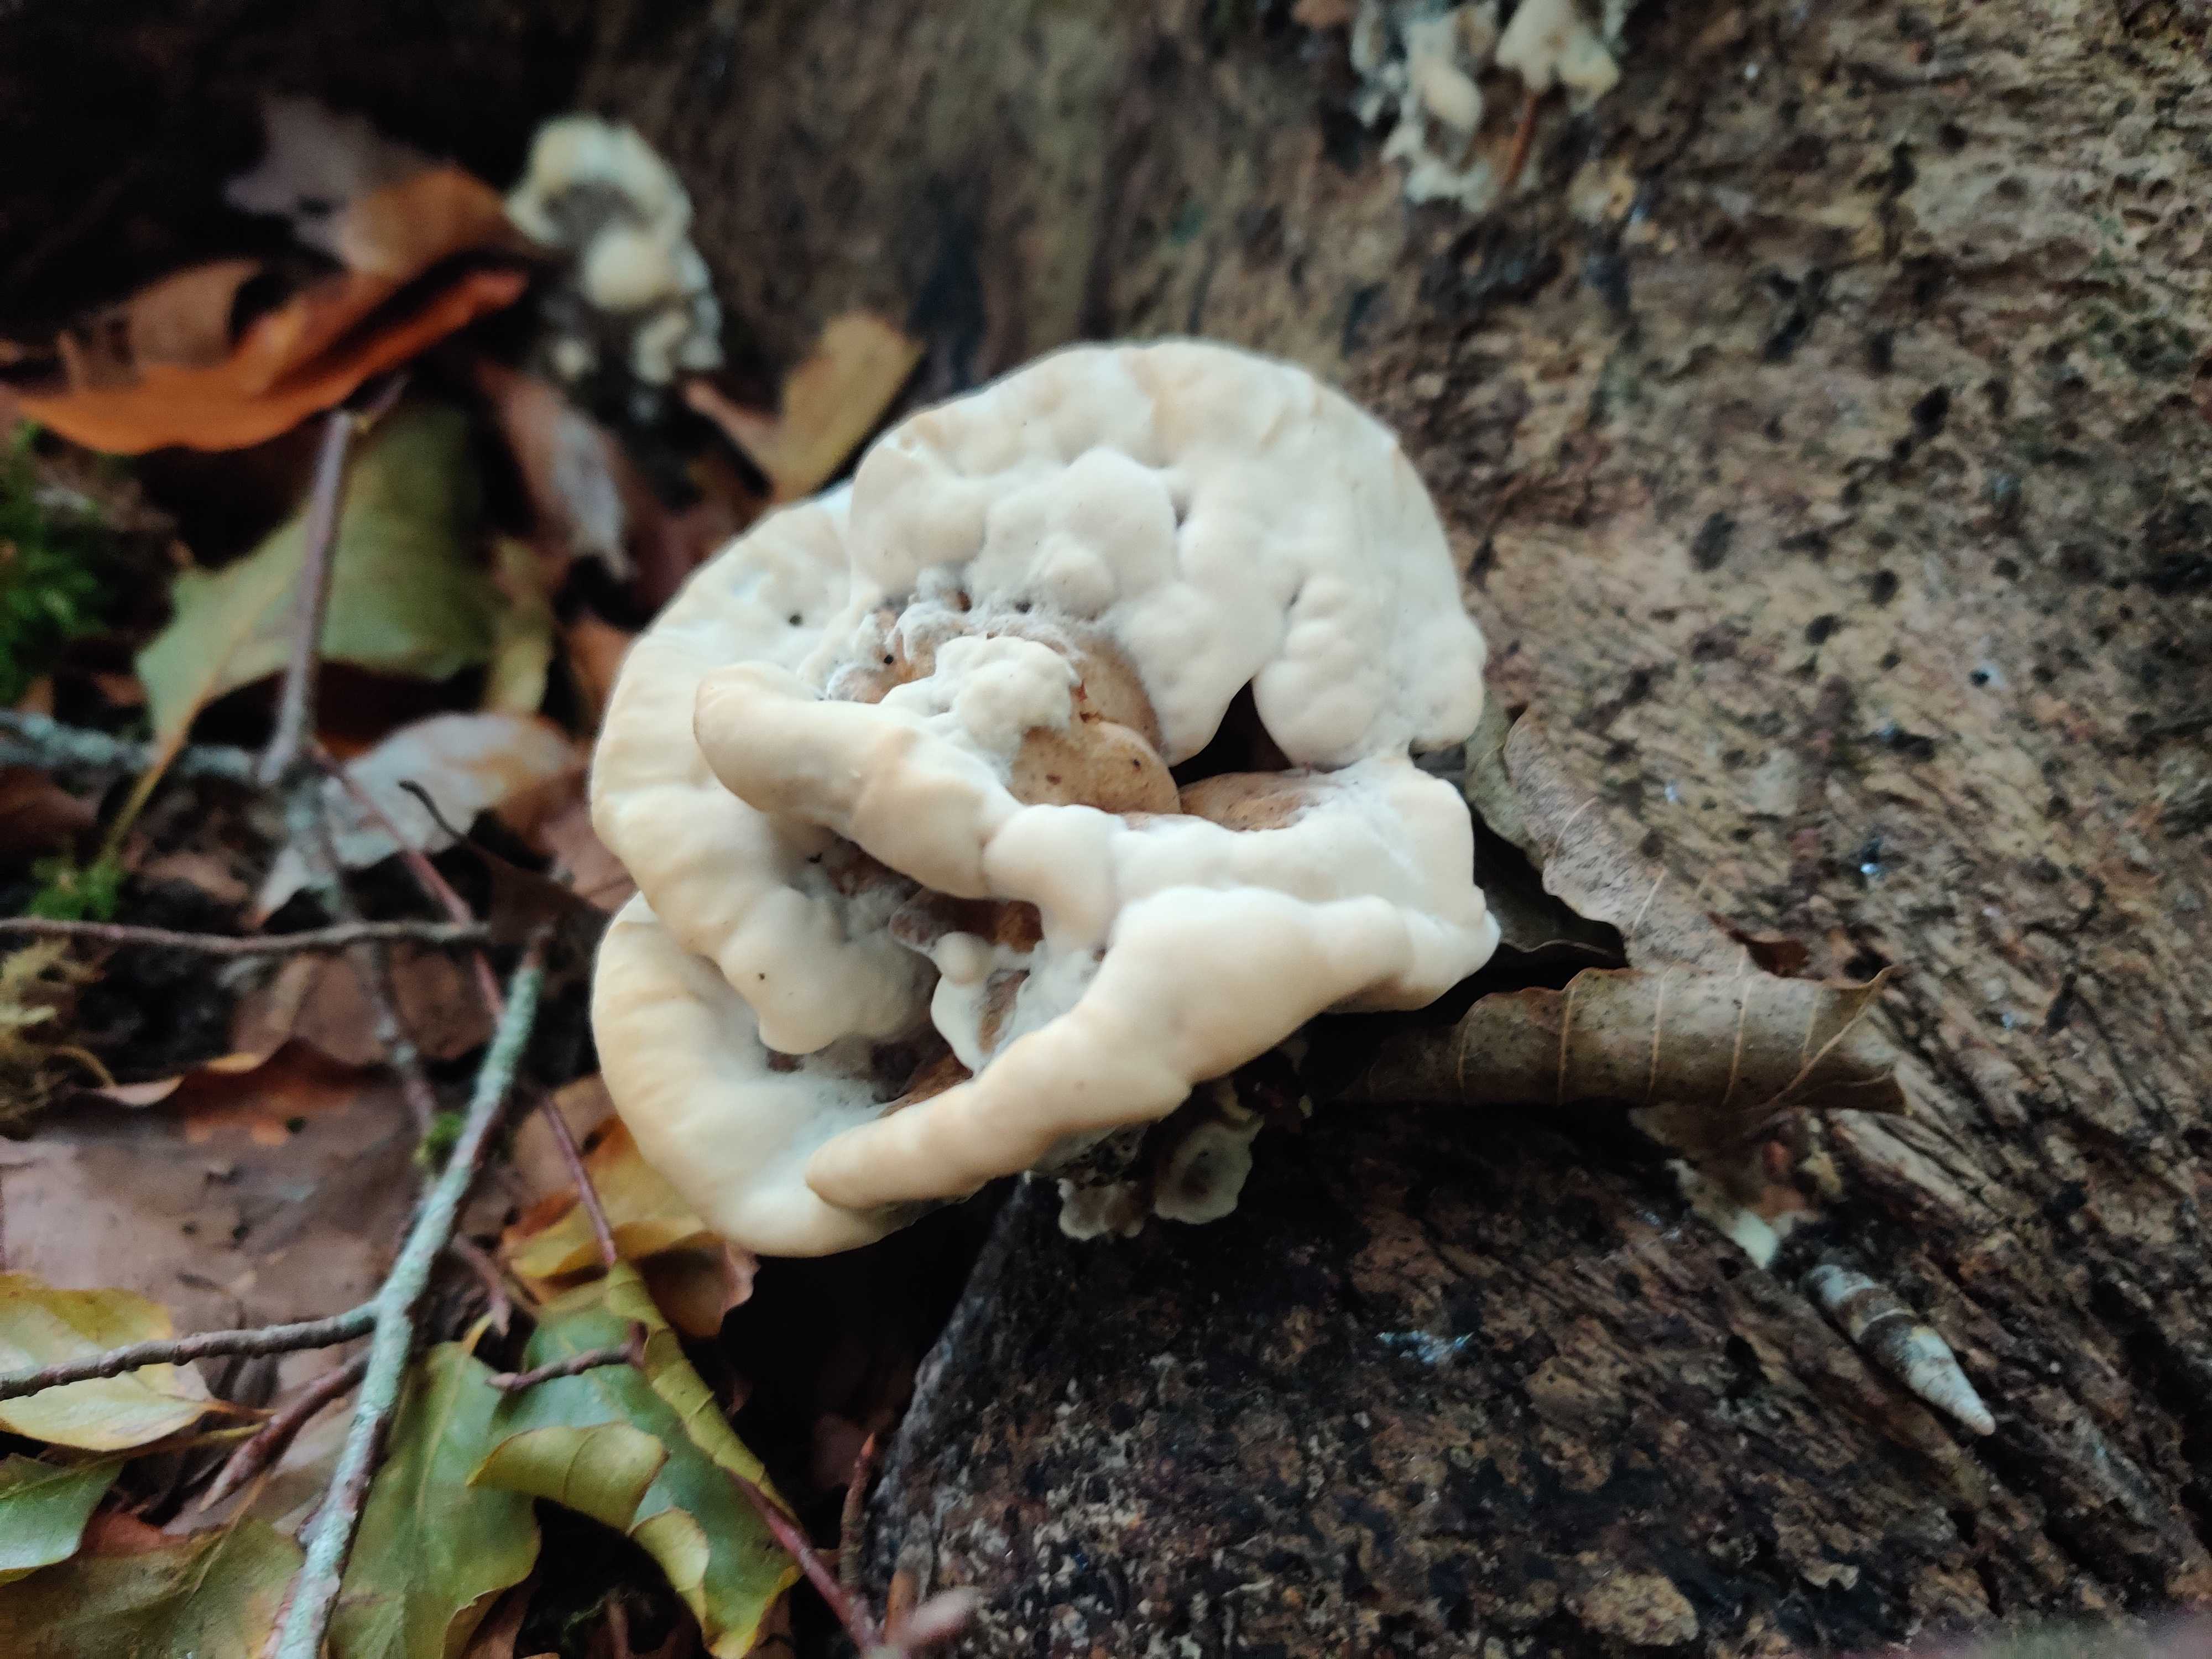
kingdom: Fungi
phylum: Basidiomycota
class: Agaricomycetes
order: Polyporales
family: Phanerochaetaceae
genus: Bjerkandera
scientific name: Bjerkandera fumosa
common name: grågul sodporesvamp
